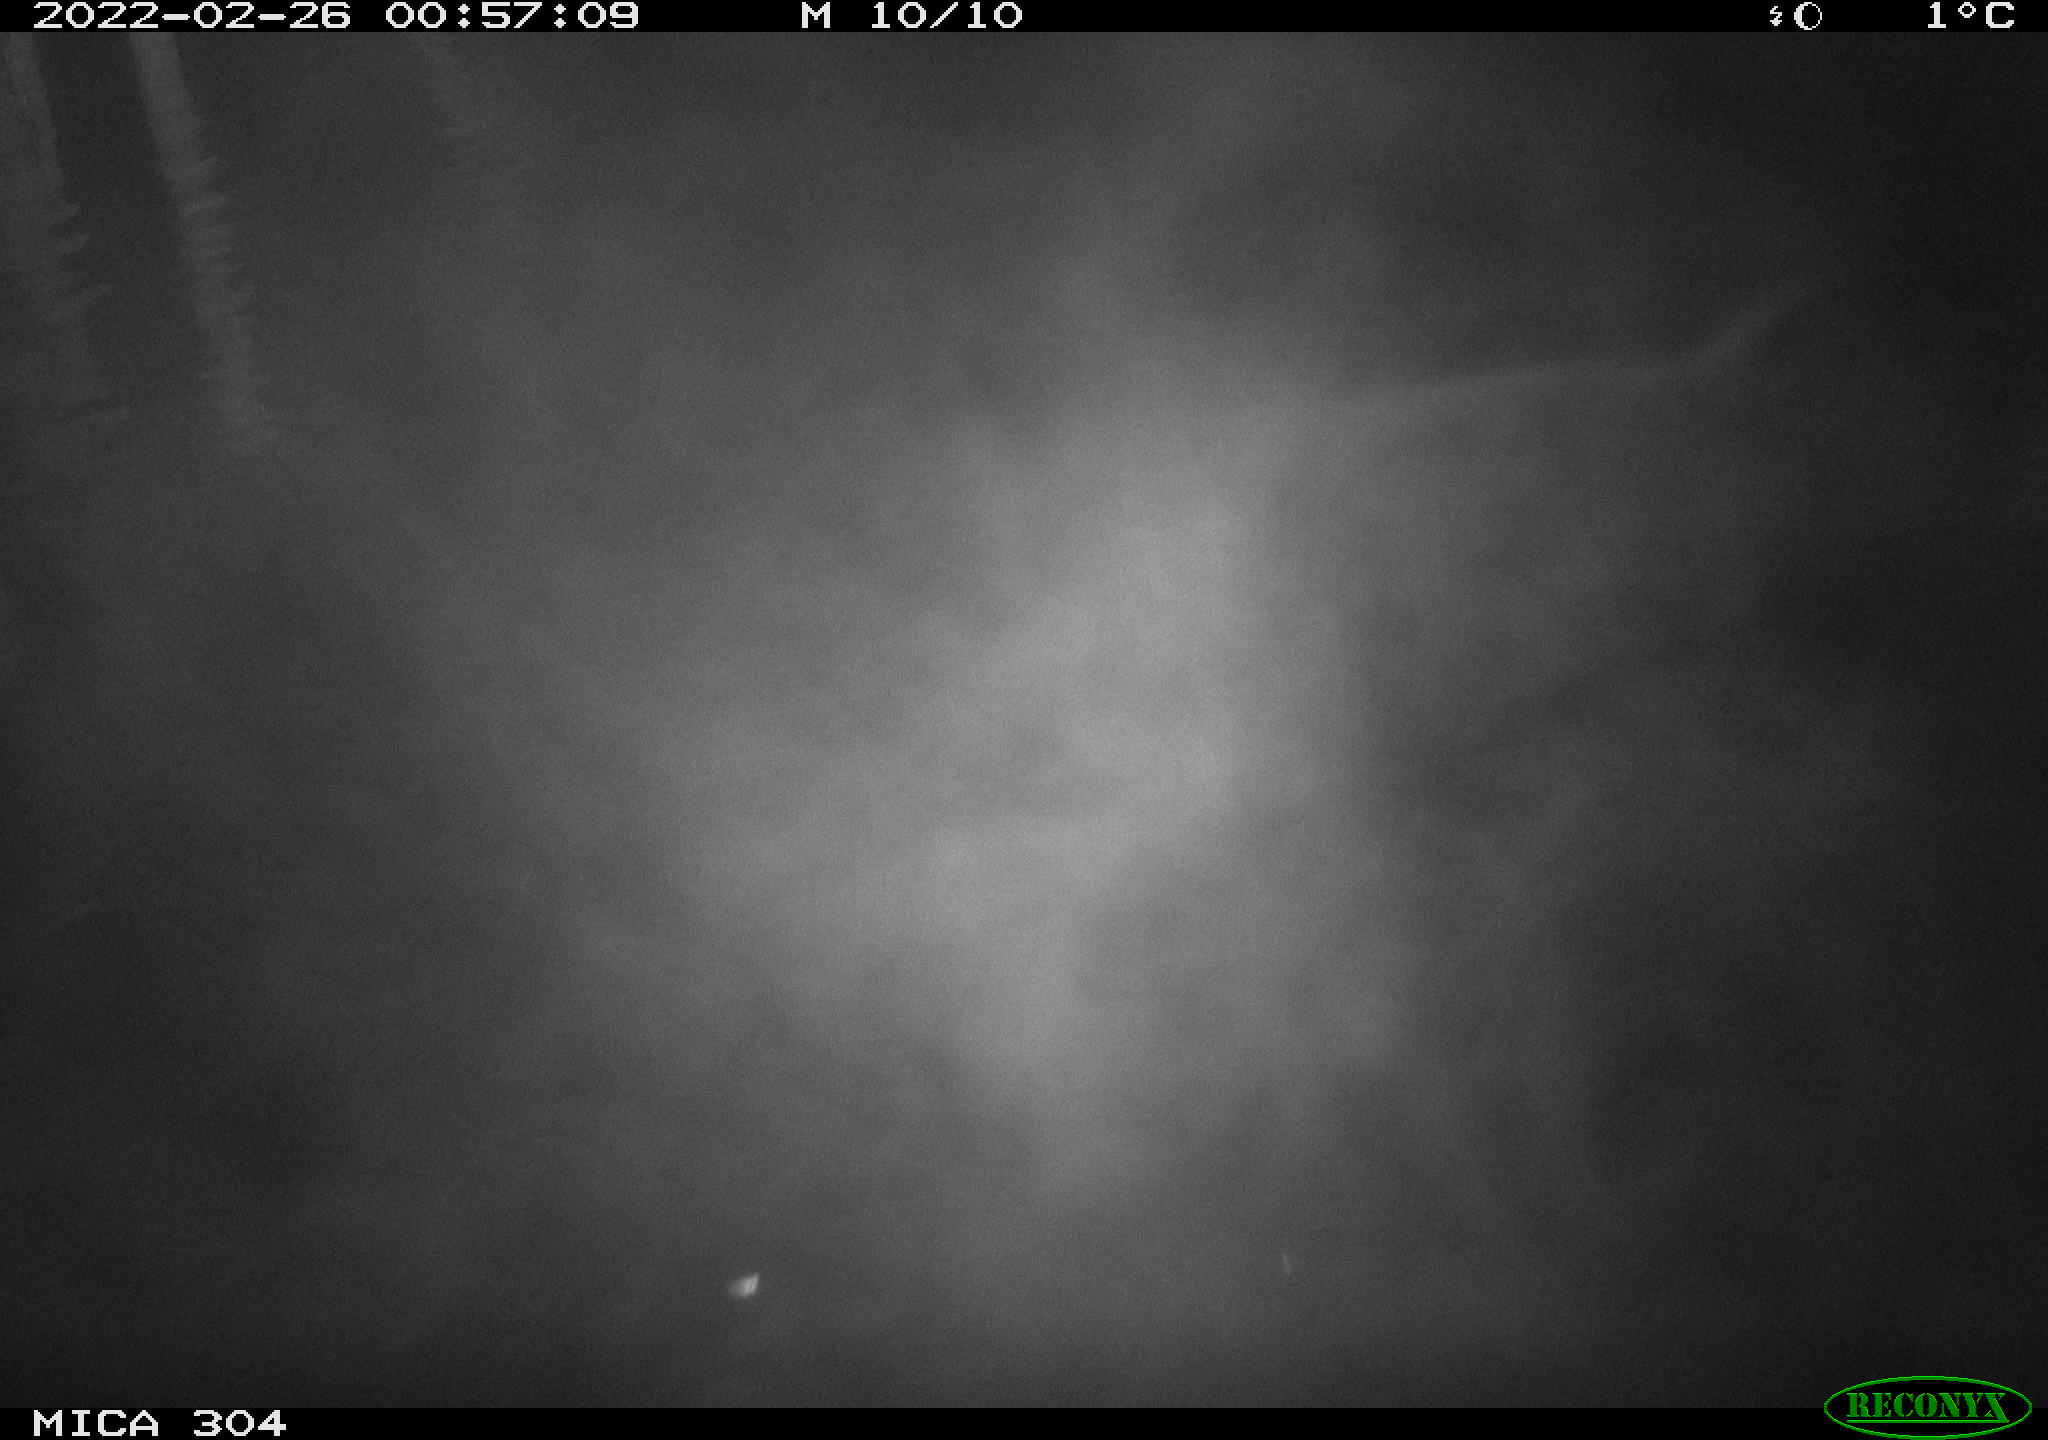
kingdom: Animalia
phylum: Chordata
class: Aves
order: Anseriformes
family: Anatidae
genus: Anas
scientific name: Anas platyrhynchos
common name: Mallard
